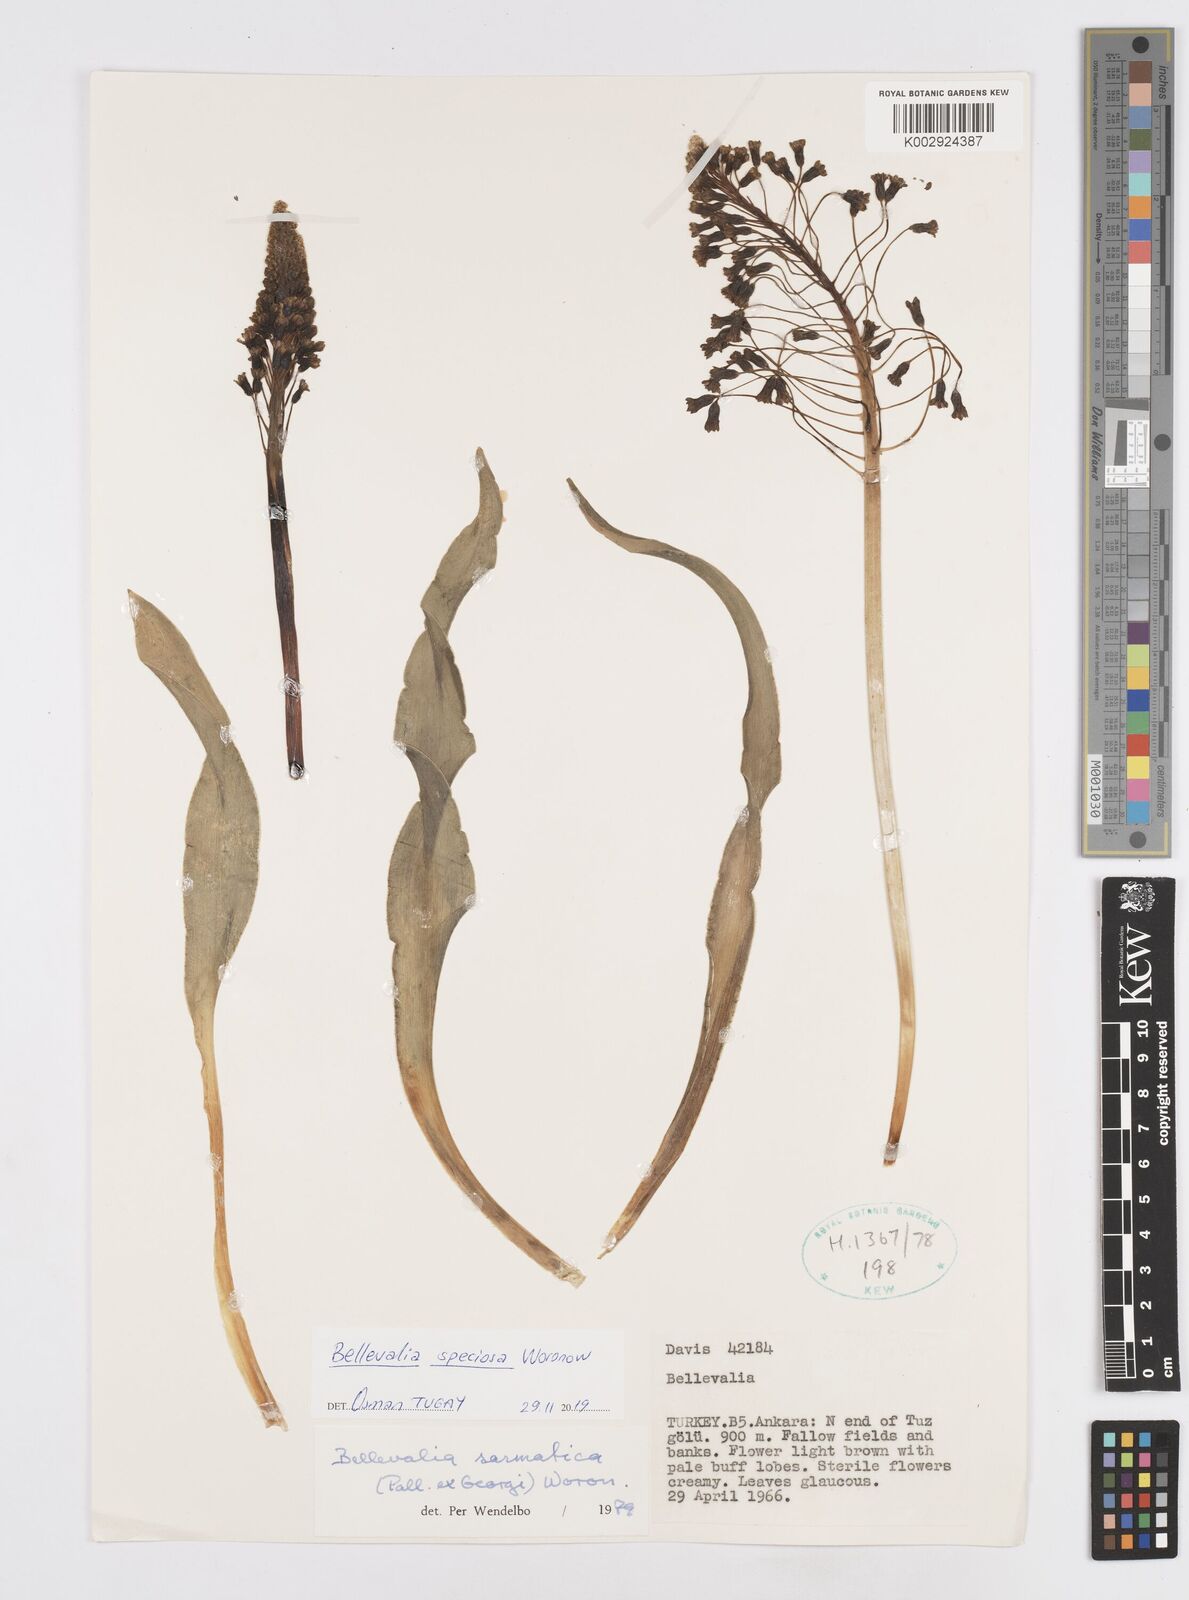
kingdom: Plantae
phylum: Tracheophyta
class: Liliopsida
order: Asparagales
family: Asparagaceae
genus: Bellevalia
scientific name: Bellevalia speciosa
